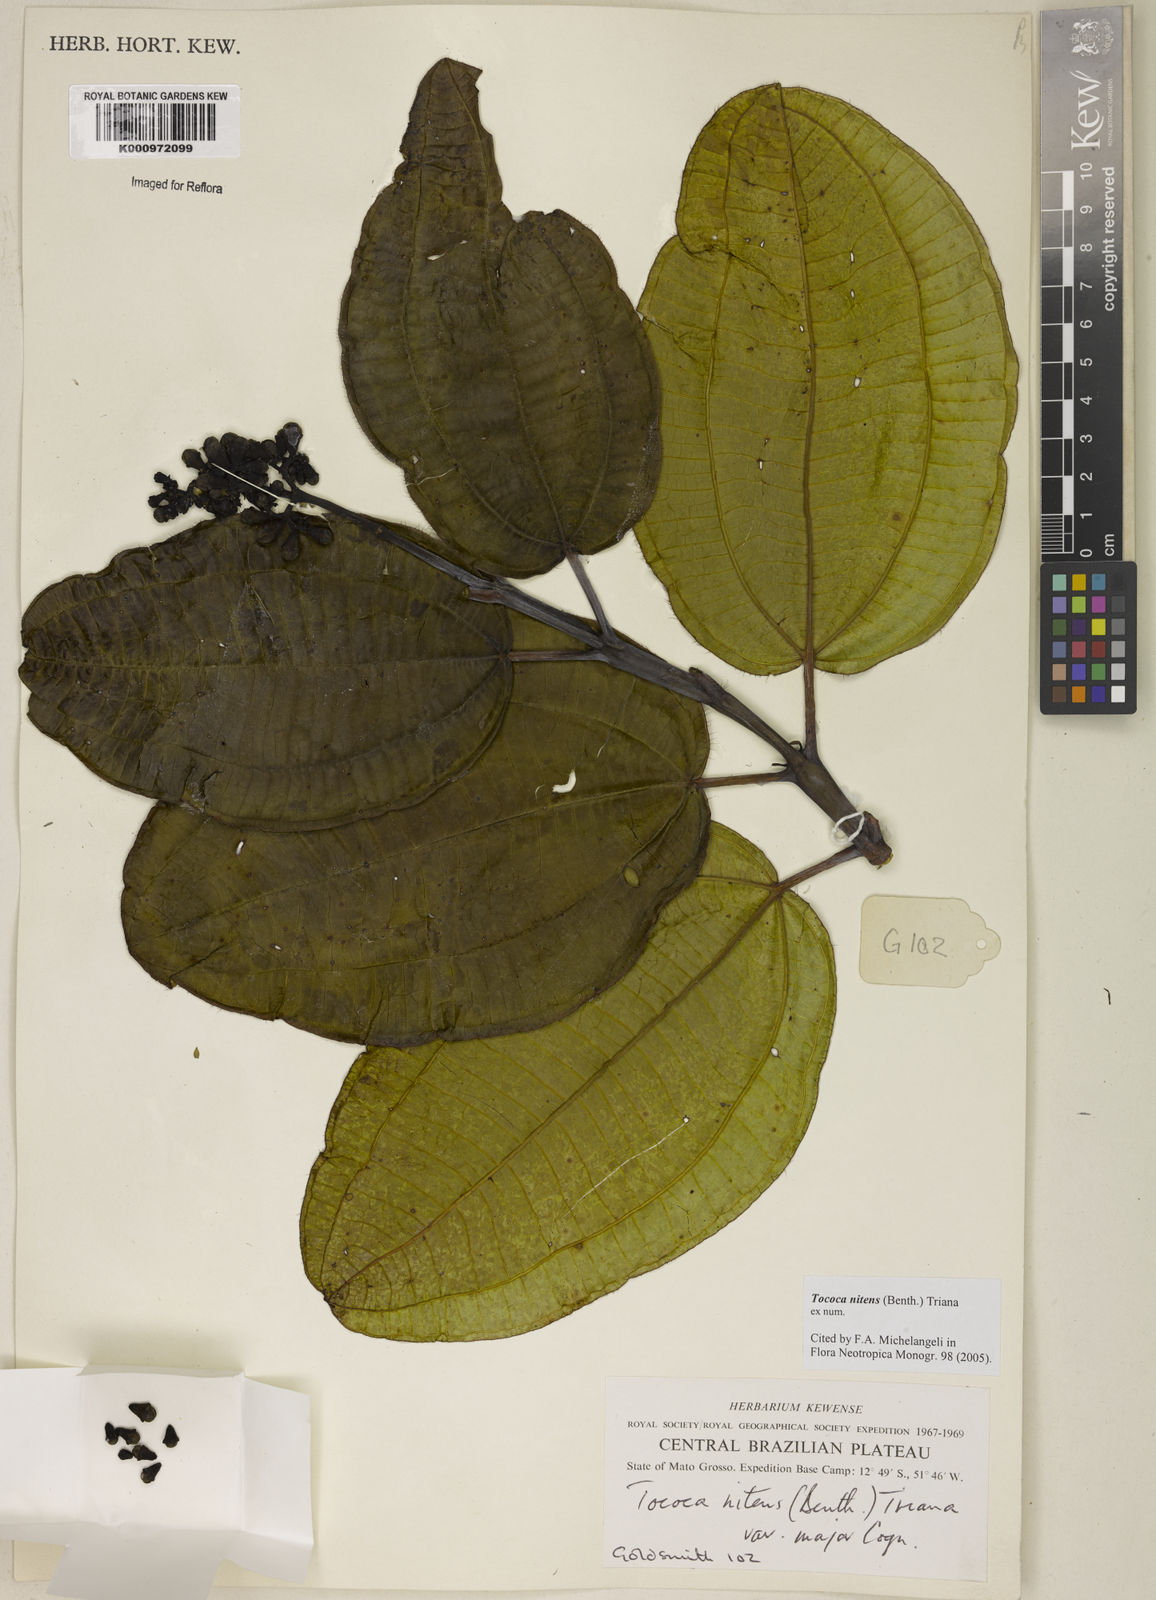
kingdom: Plantae
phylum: Tracheophyta
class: Magnoliopsida
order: Myrtales
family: Melastomataceae
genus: Miconia
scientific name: Miconia nitens
